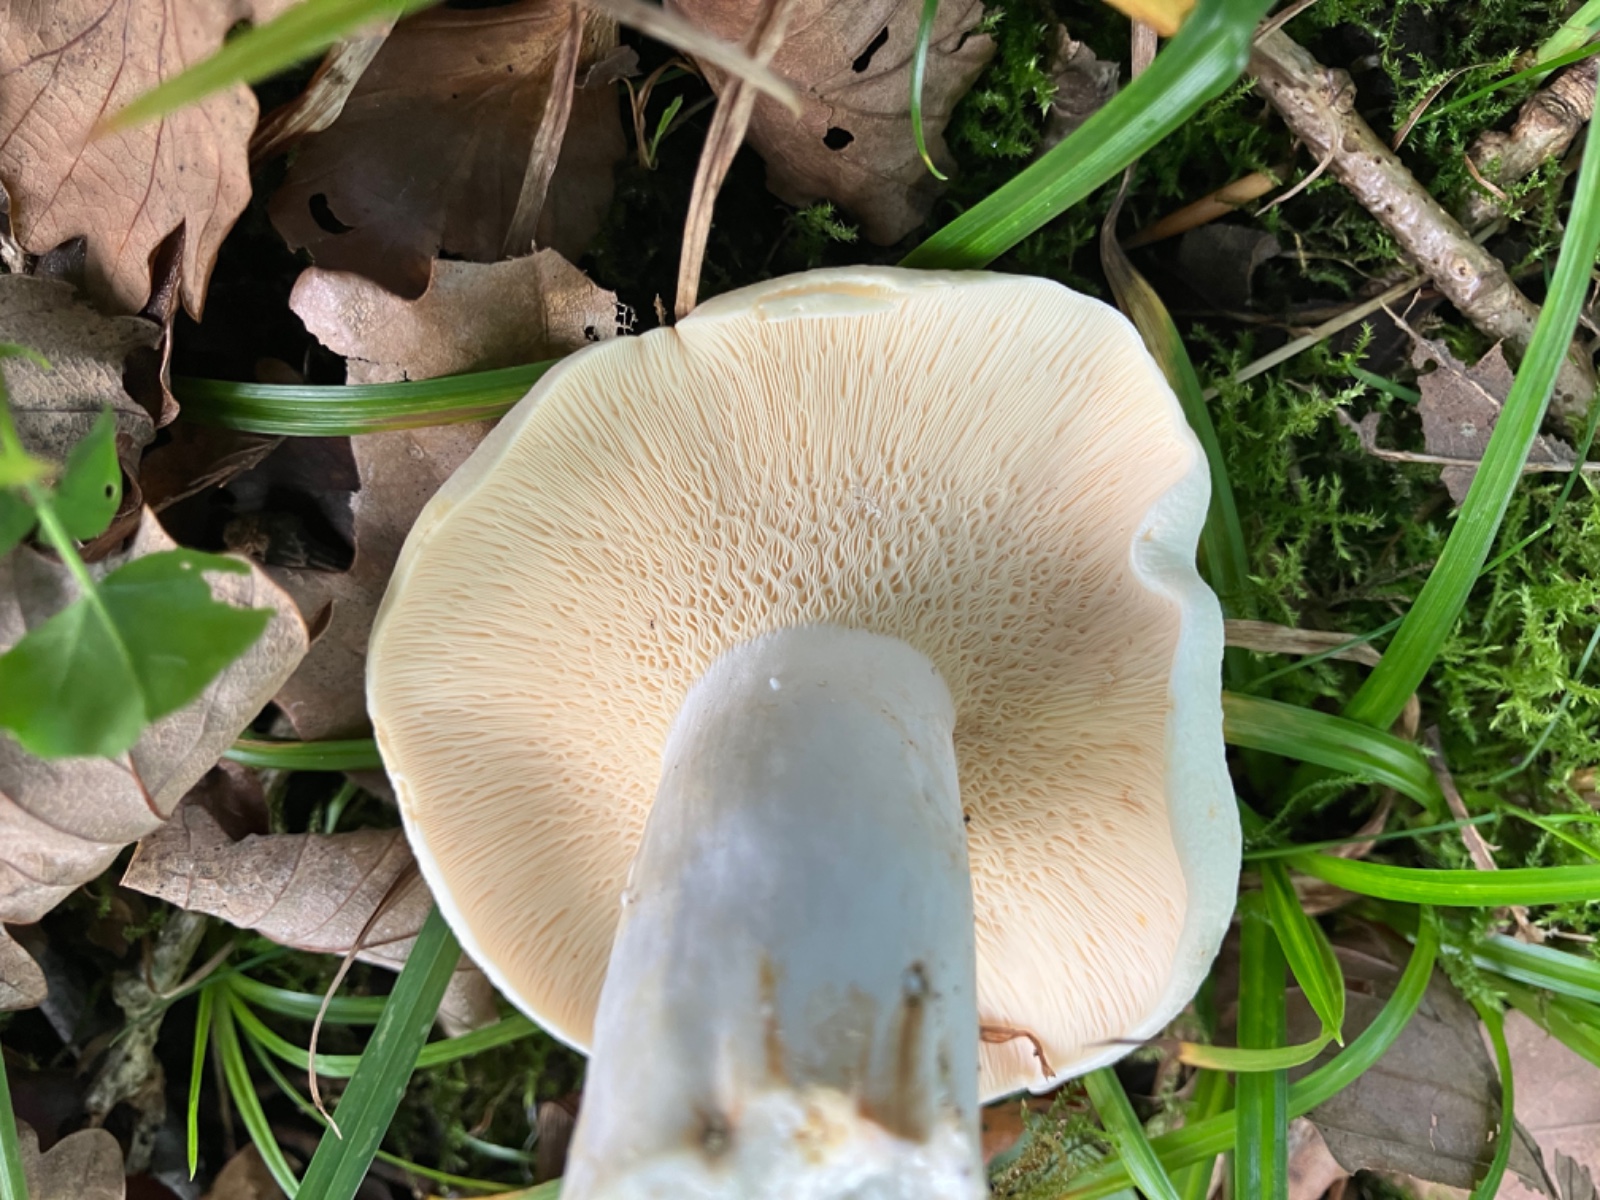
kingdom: Fungi
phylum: Basidiomycota
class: Agaricomycetes
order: Russulales
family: Russulaceae
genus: Russula
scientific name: Russula chloroides
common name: grønhalset tragt-skørhat
